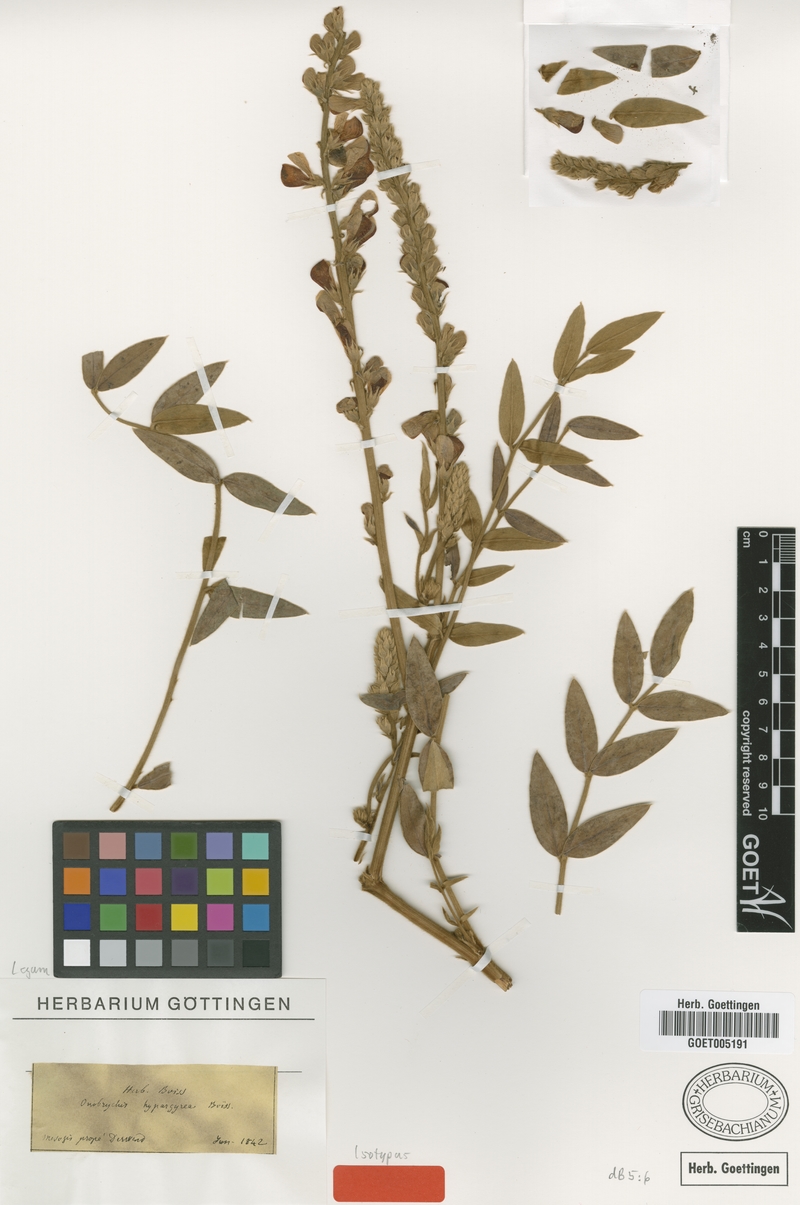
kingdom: Plantae
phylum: Tracheophyta
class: Magnoliopsida
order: Fabales
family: Fabaceae
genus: Onobrychis
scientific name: Onobrychis hypargyrea
